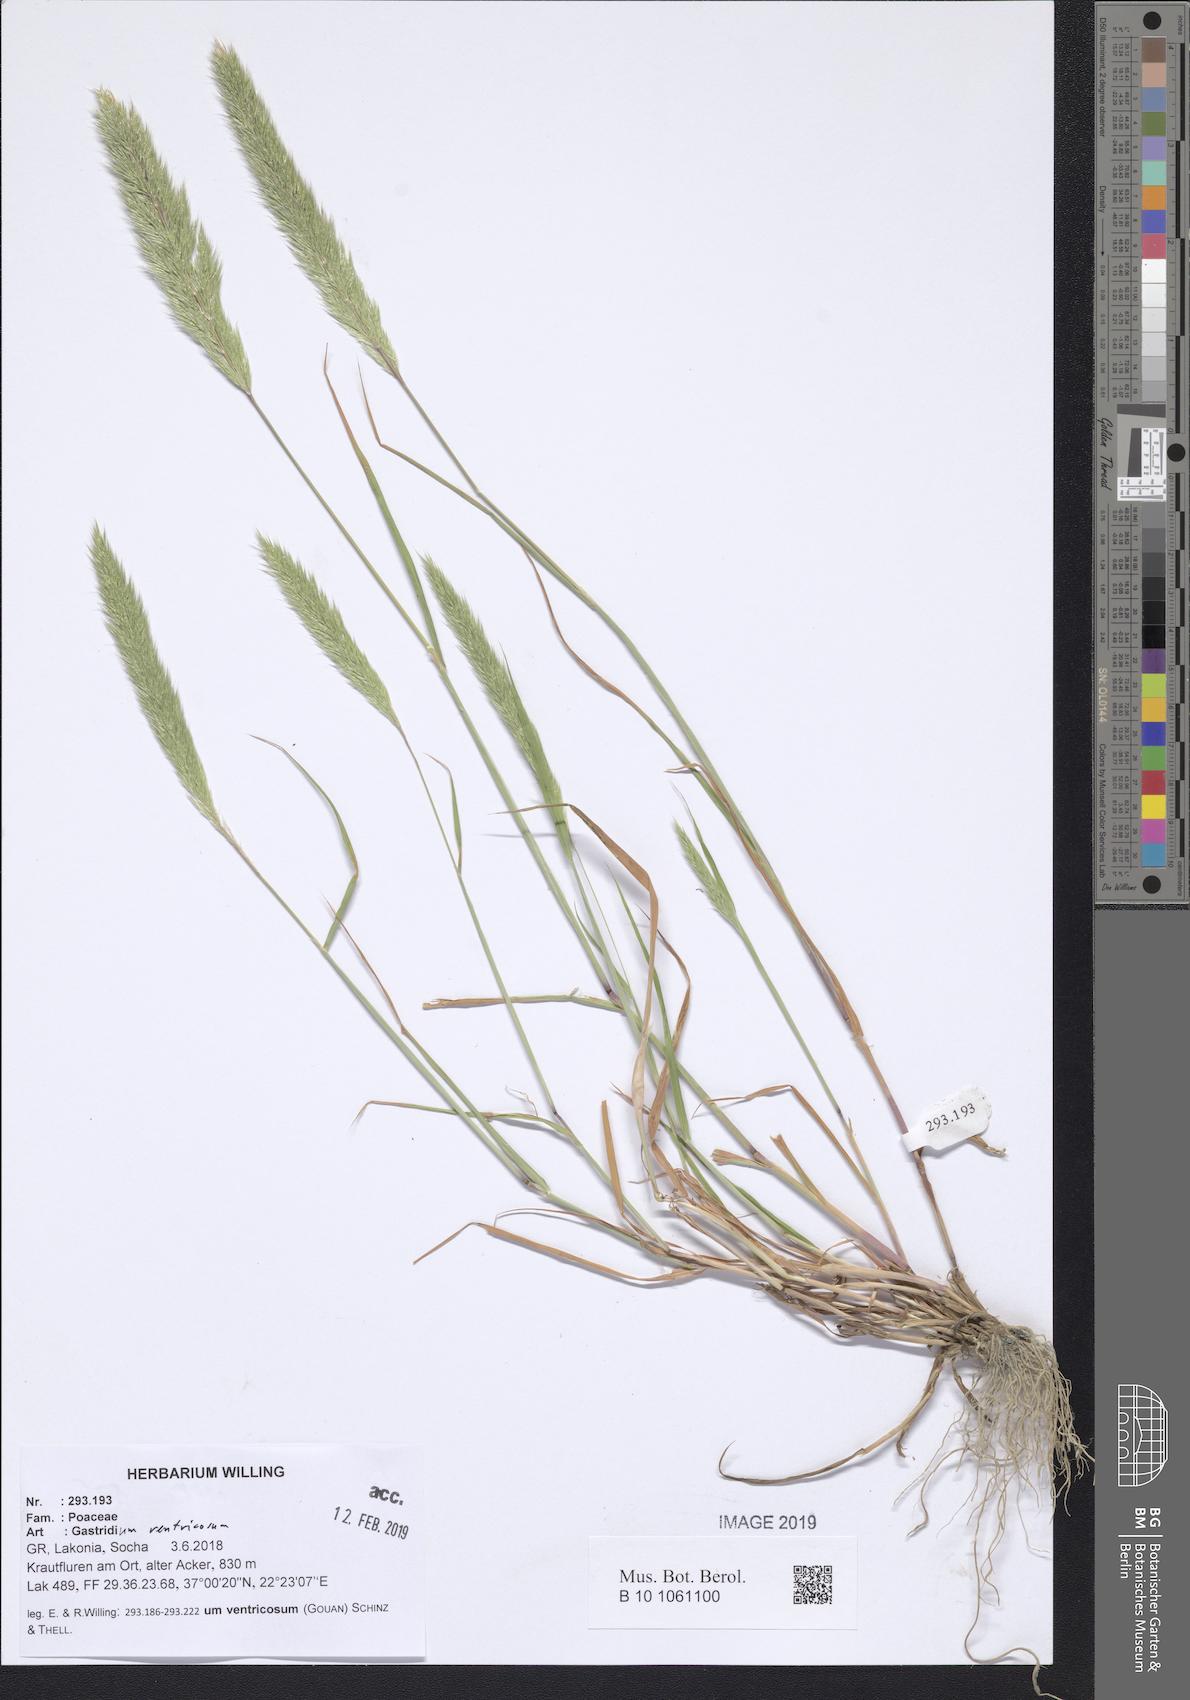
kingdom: Plantae
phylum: Tracheophyta
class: Liliopsida
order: Poales
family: Poaceae
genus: Gastridium
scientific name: Gastridium ventricosum
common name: Nit-grass
